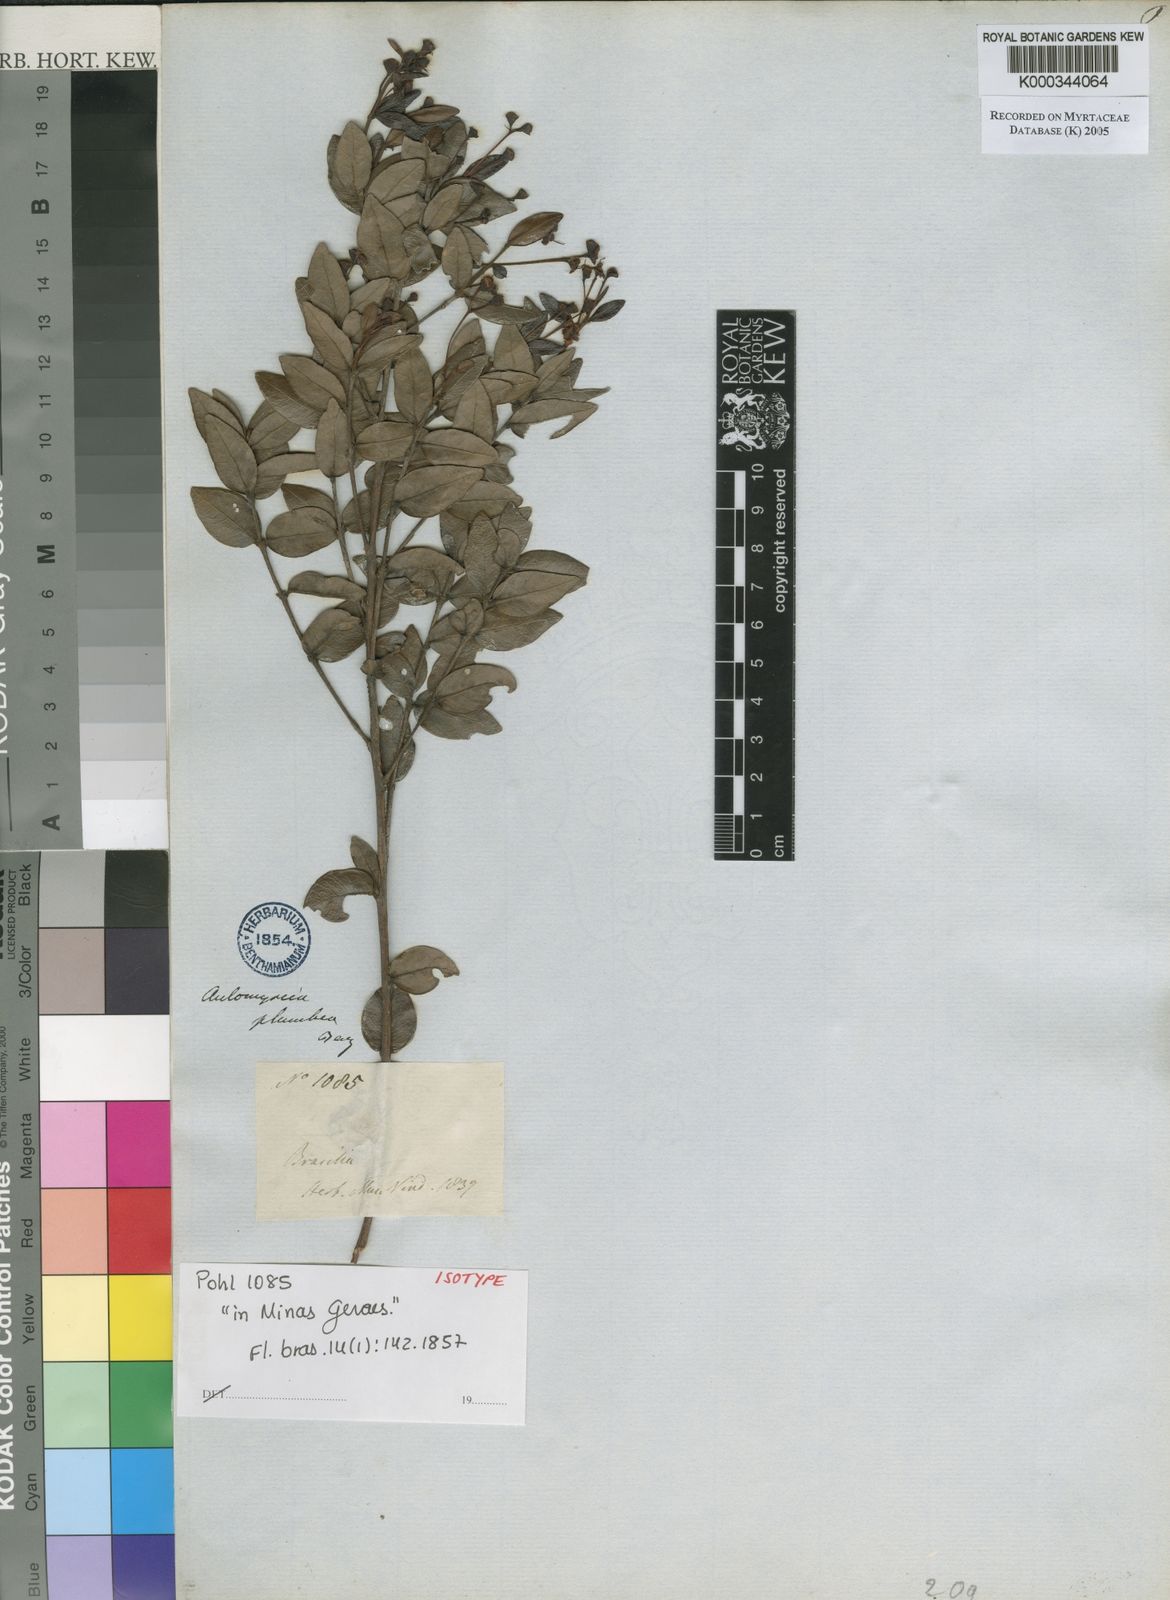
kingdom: Plantae
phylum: Tracheophyta
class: Magnoliopsida
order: Myrtales
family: Myrtaceae
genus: Myrcia
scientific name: Myrcia plumbea
